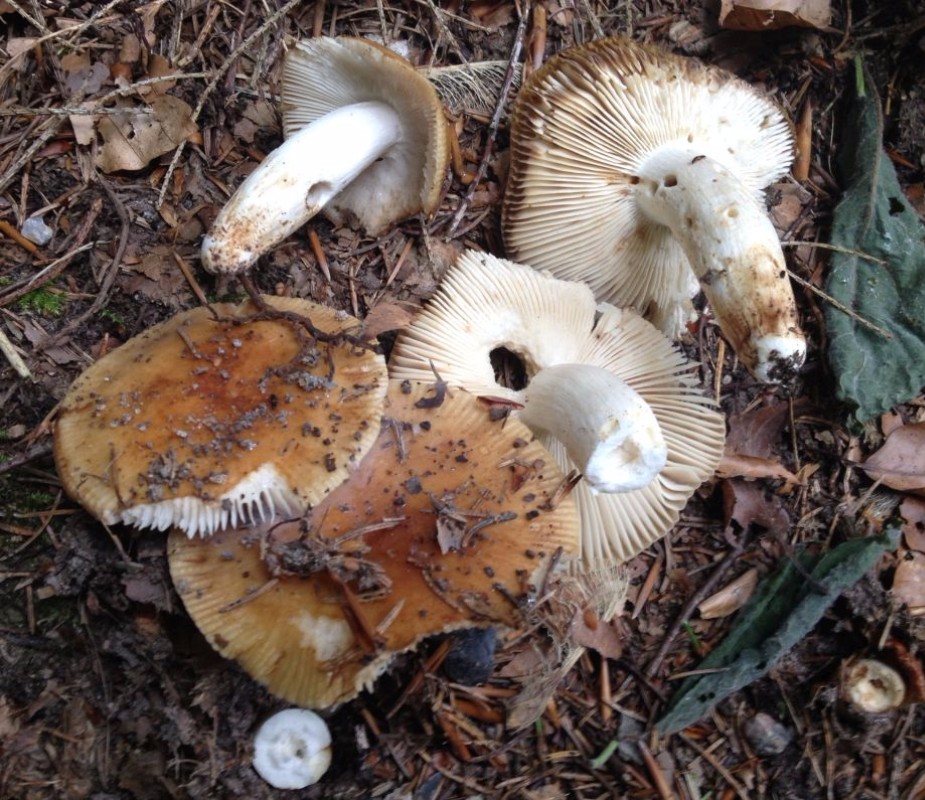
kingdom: Fungi
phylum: Basidiomycota
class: Agaricomycetes
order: Russulales
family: Russulaceae
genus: Russula
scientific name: Russula grata
